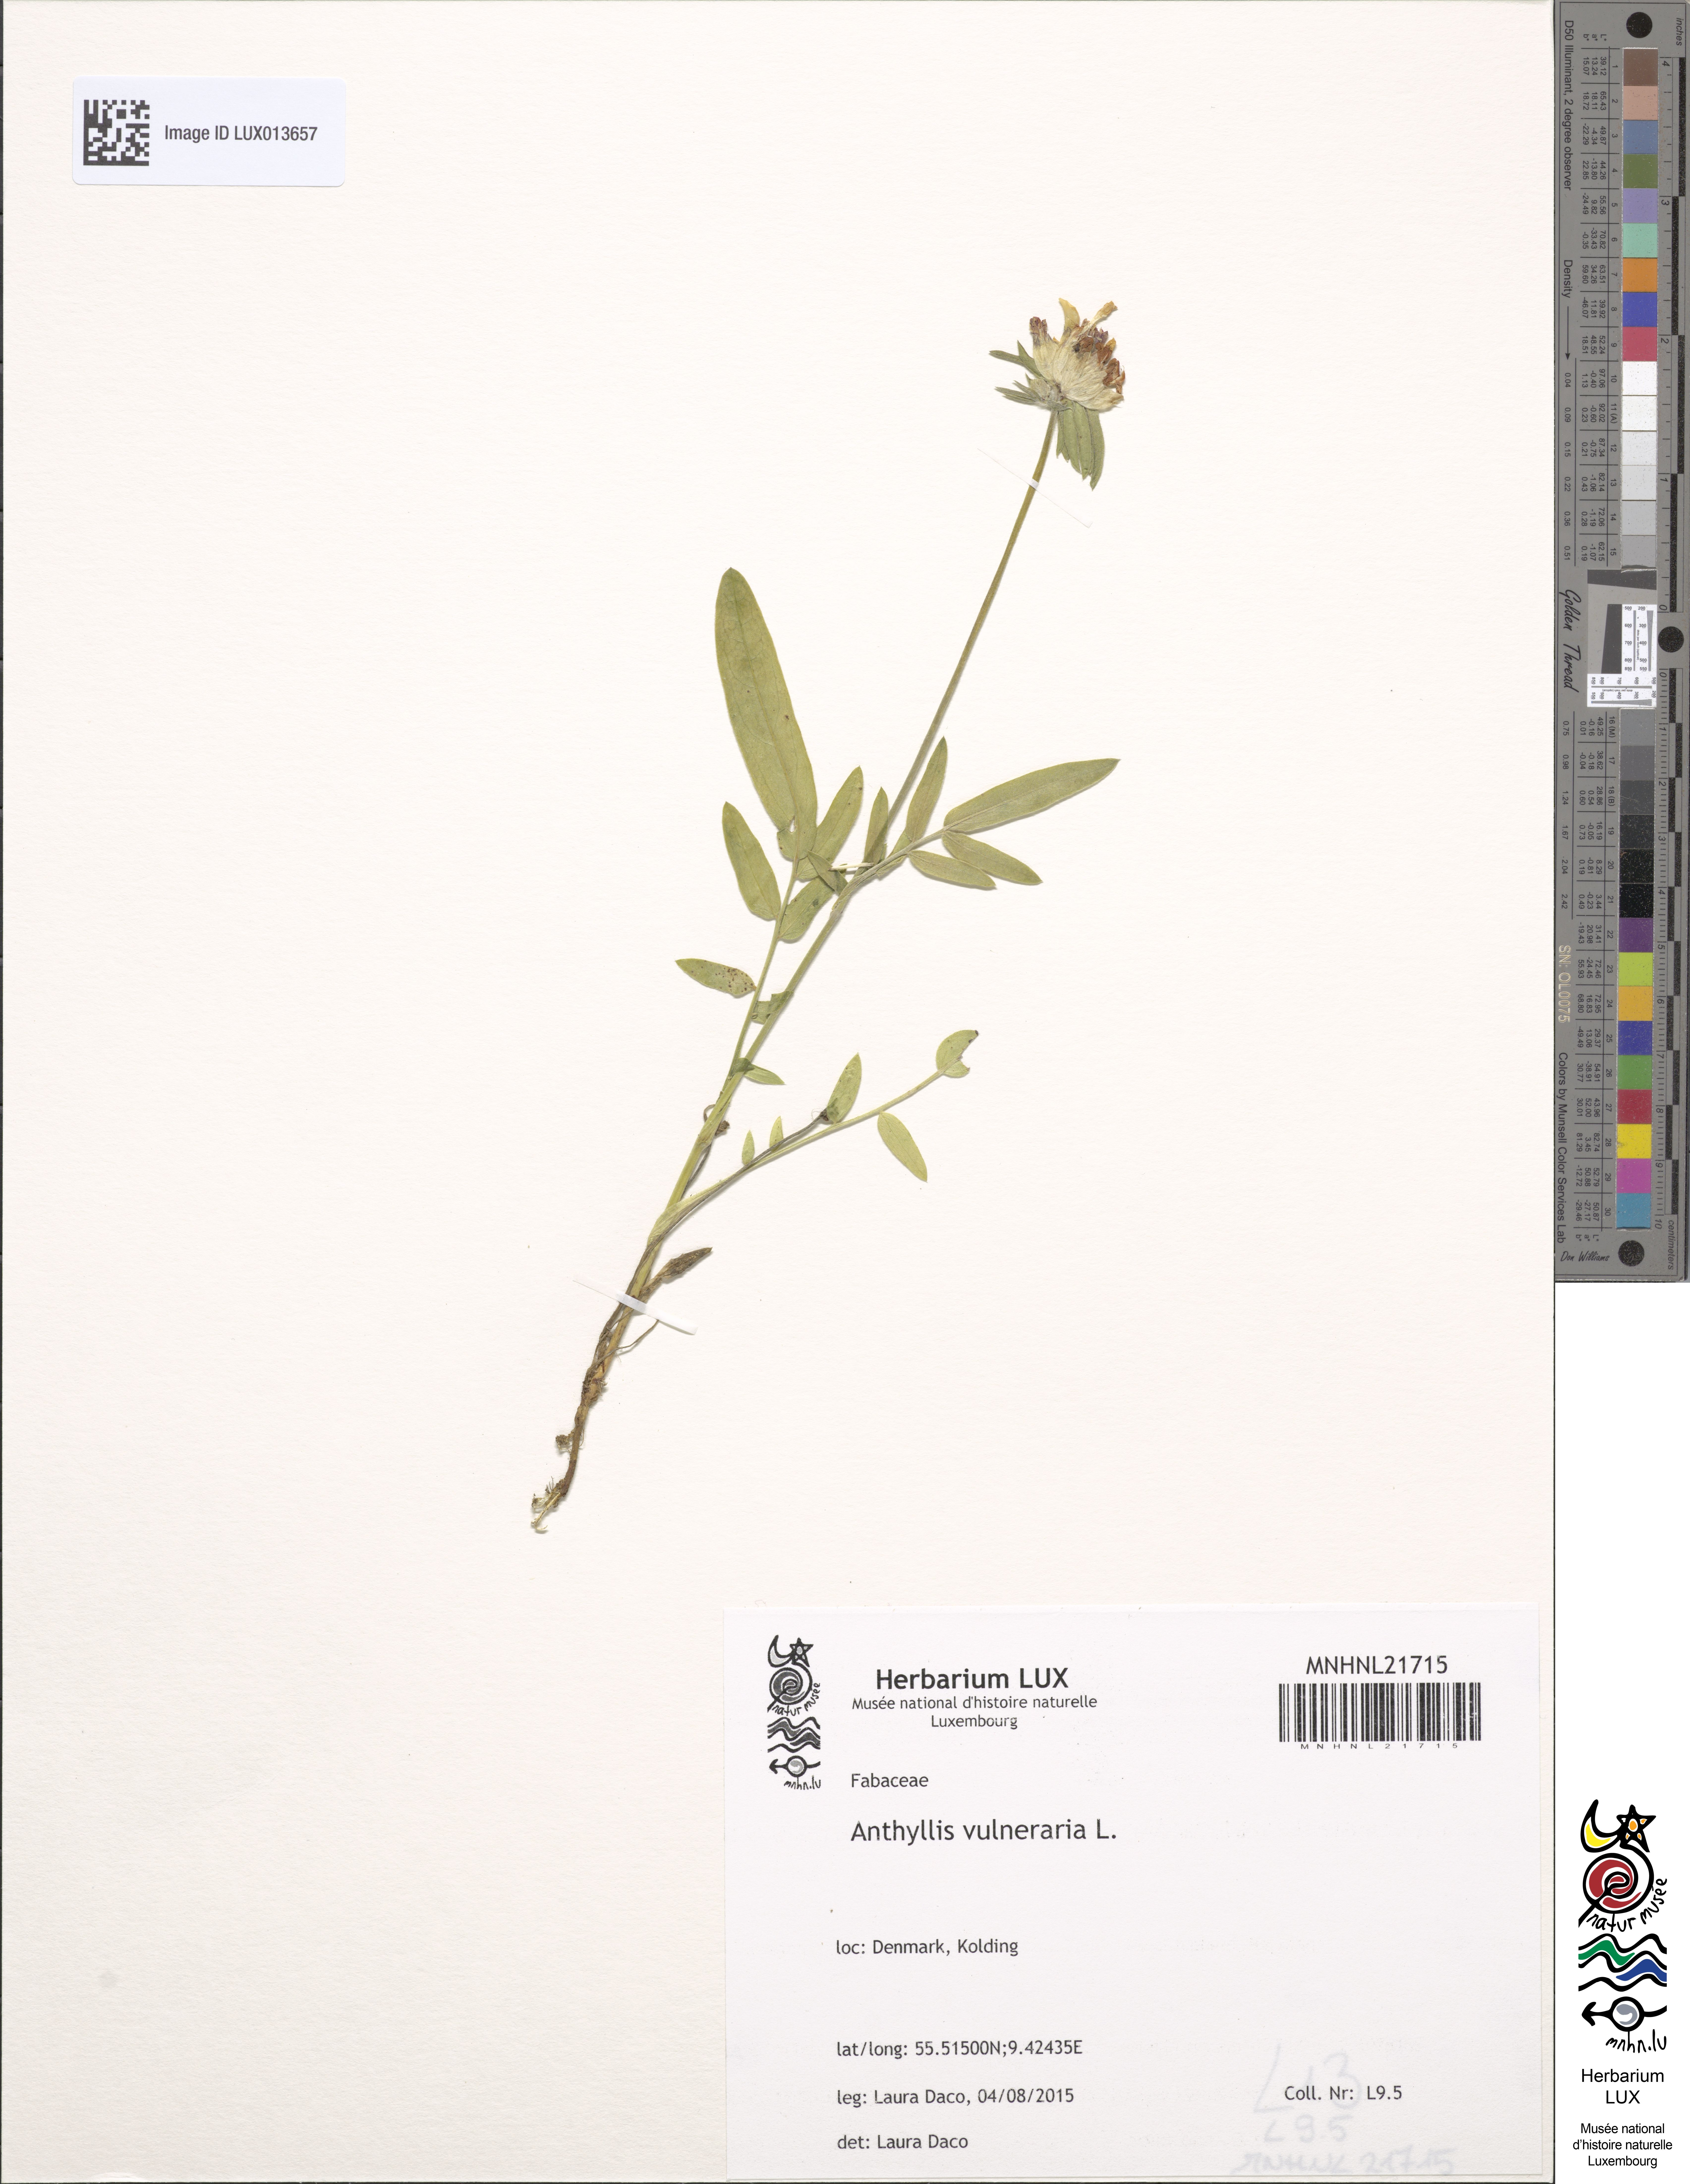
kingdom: Plantae
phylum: Tracheophyta
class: Magnoliopsida
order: Fabales
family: Fabaceae
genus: Anthyllis
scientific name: Anthyllis vulneraria
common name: Kidney vetch
